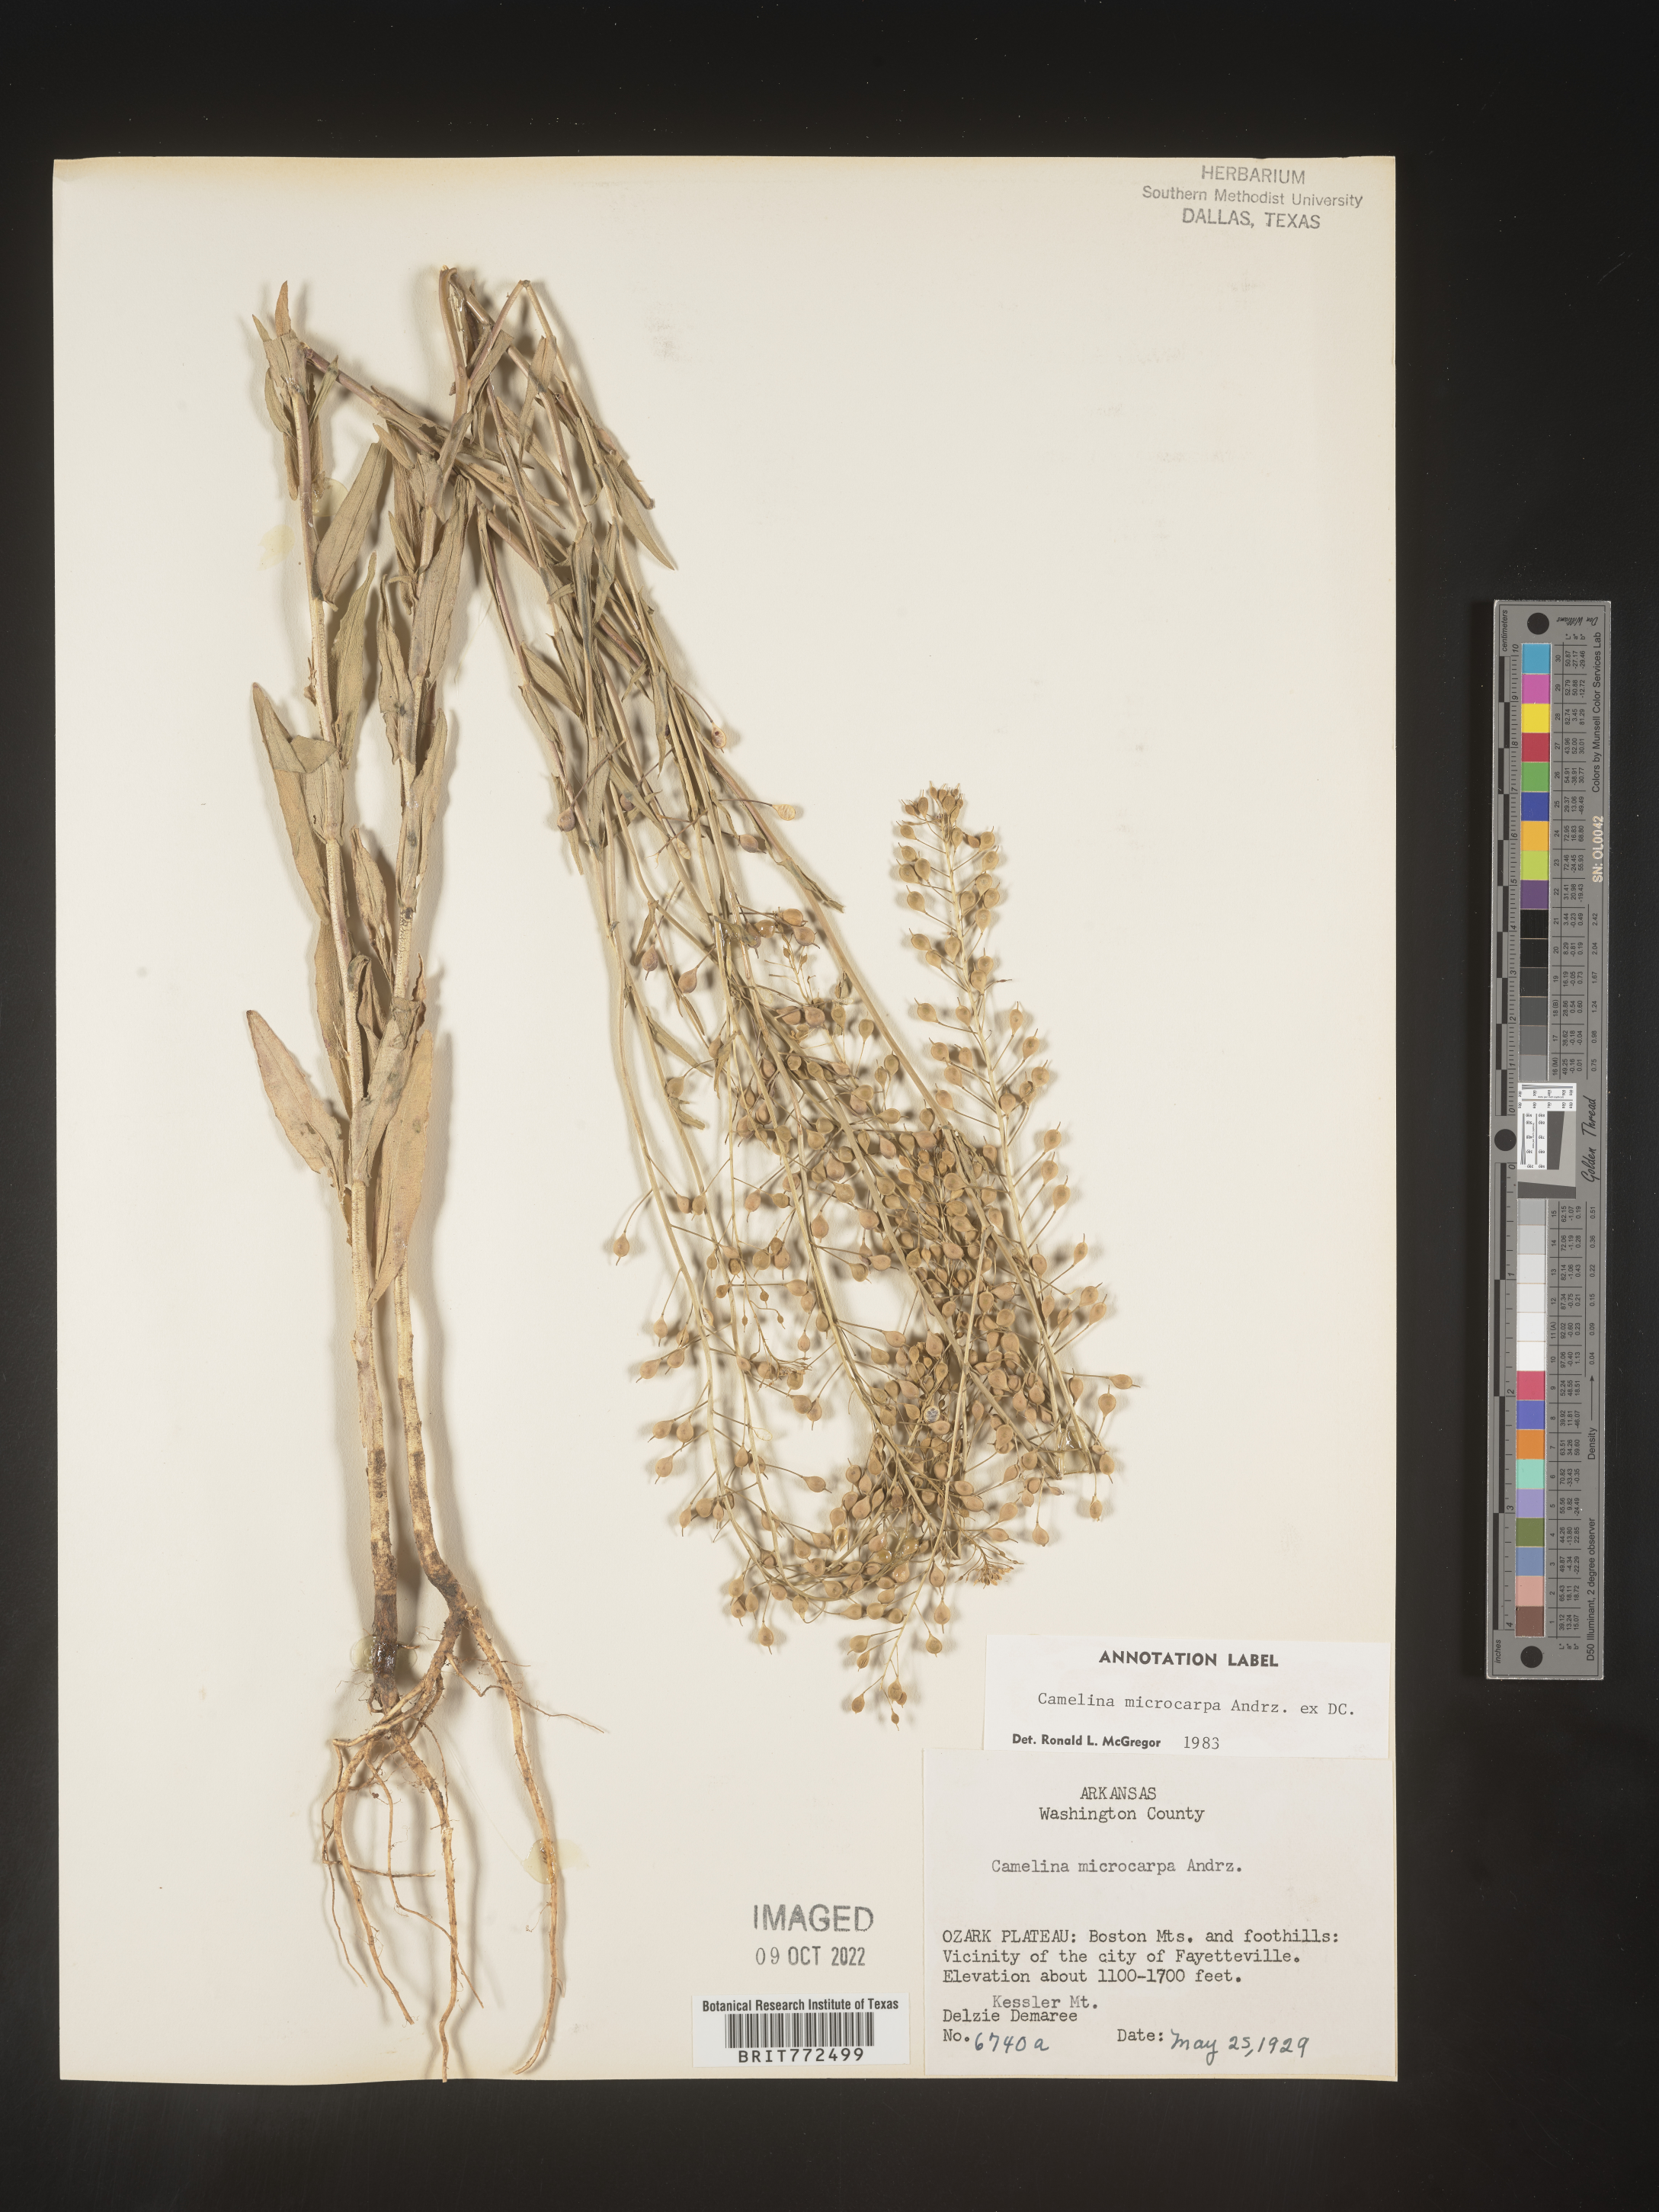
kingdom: Plantae
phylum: Tracheophyta
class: Magnoliopsida
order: Brassicales
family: Brassicaceae
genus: Camelina
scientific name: Camelina microcarpa
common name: Lesser gold-of-pleasure
